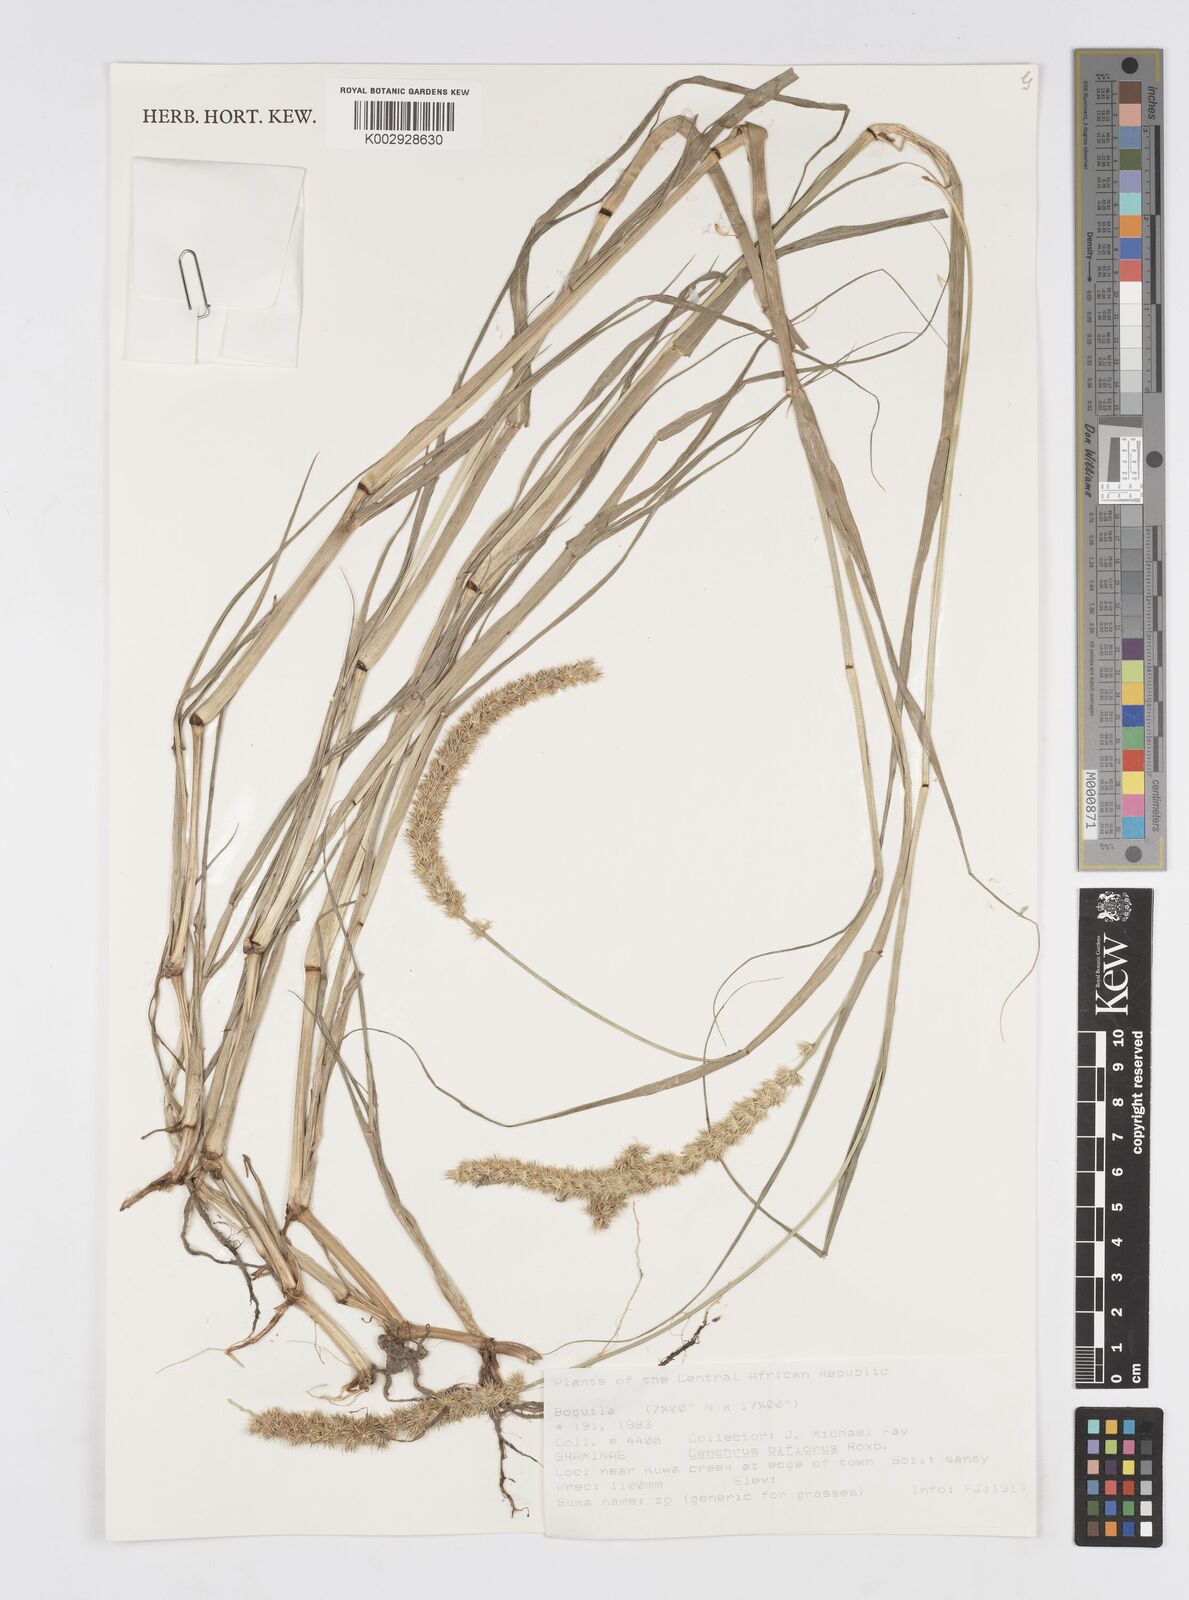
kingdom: Plantae
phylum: Tracheophyta
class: Liliopsida
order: Poales
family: Poaceae
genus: Cenchrus
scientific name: Cenchrus biflorus
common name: Indian sandbur
